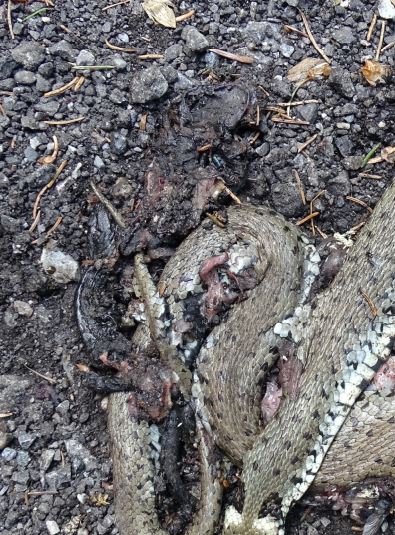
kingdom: Animalia
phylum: Chordata
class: Amphibia
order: Caudata
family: Salamandridae
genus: Salamandra
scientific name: Salamandra atra
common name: Alpine salamander
